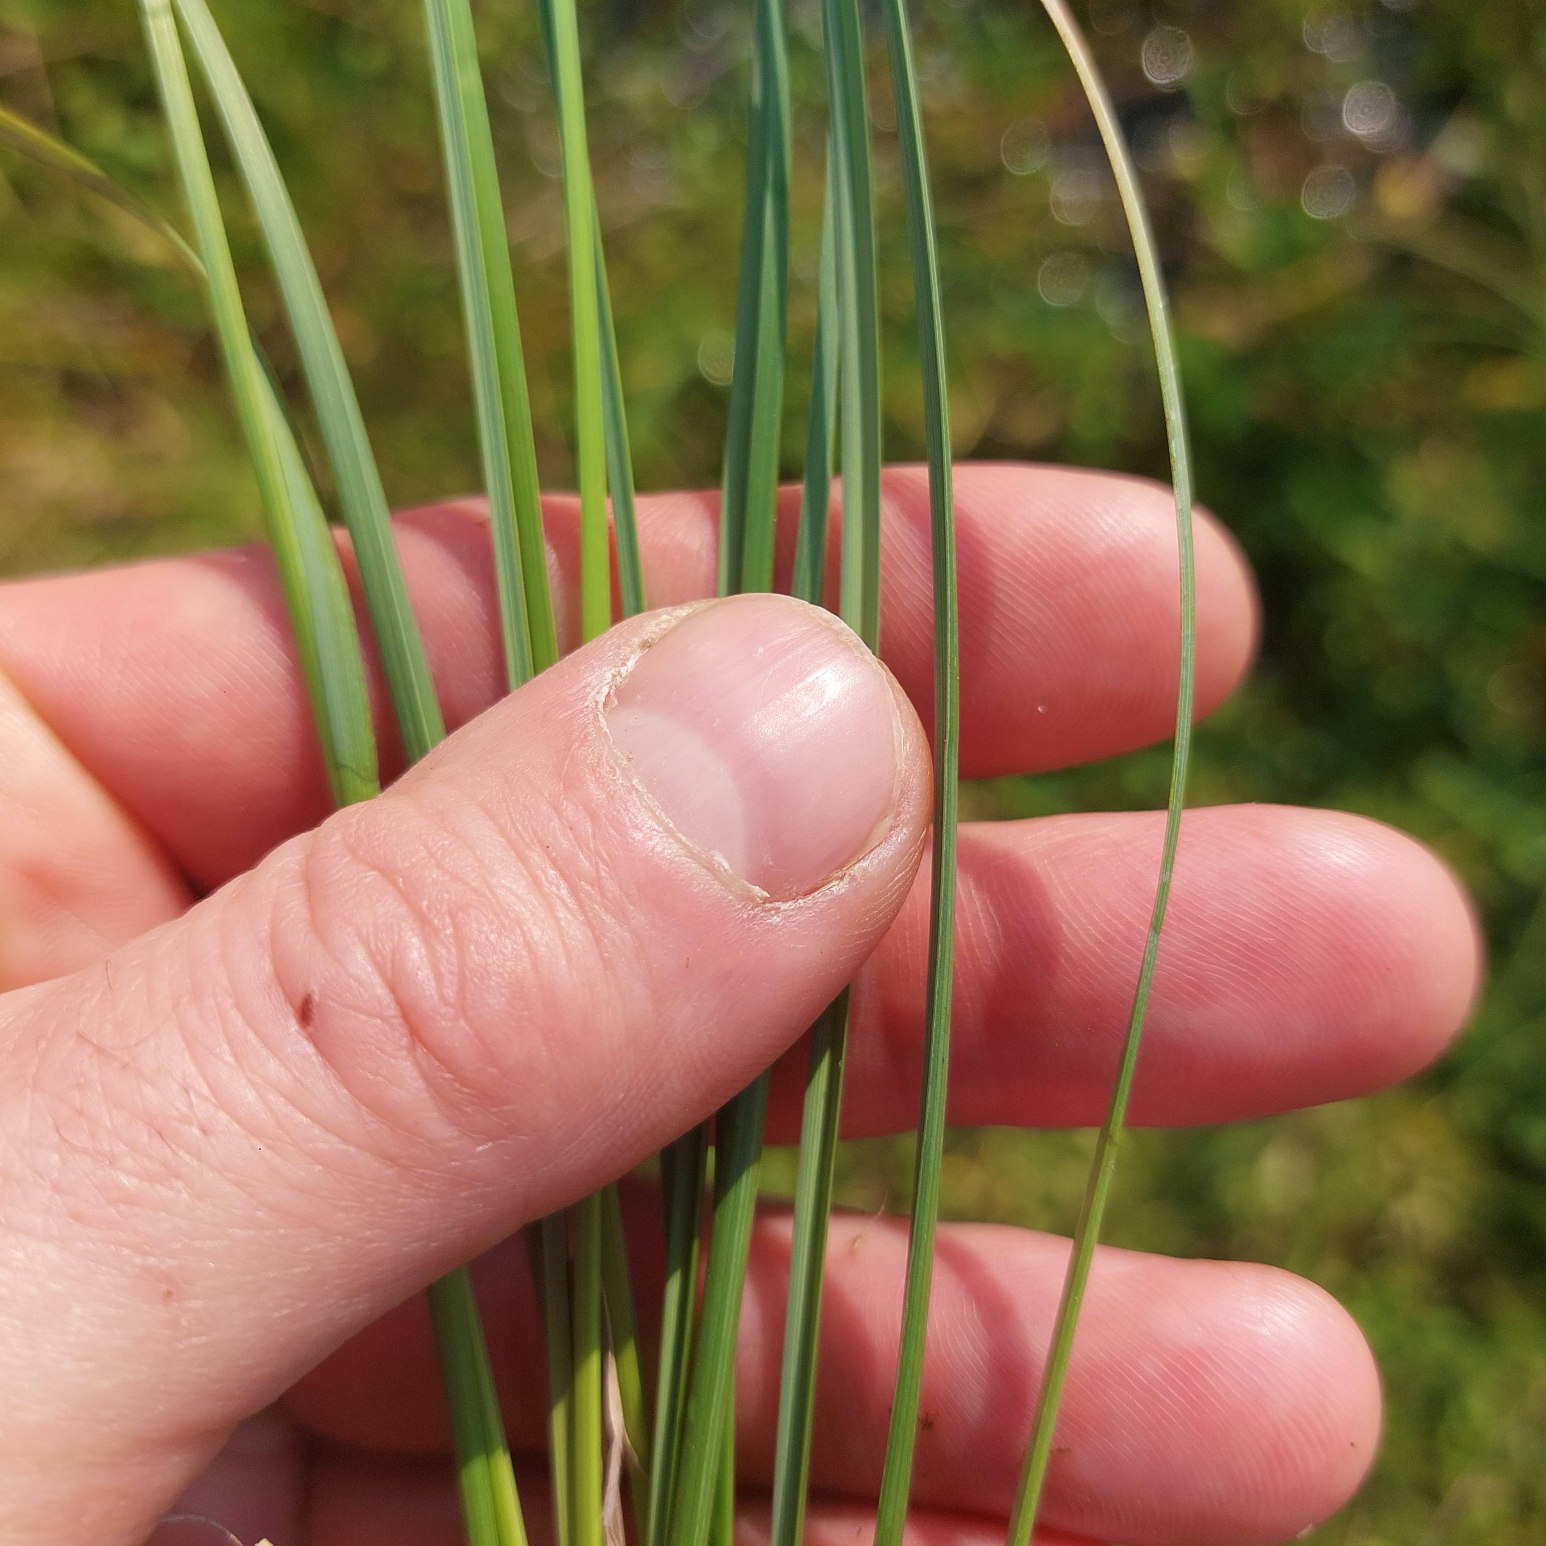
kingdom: Plantae
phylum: Tracheophyta
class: Liliopsida
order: Poales
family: Cyperaceae
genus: Carex
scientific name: Carex rostrata
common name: Næb-star
